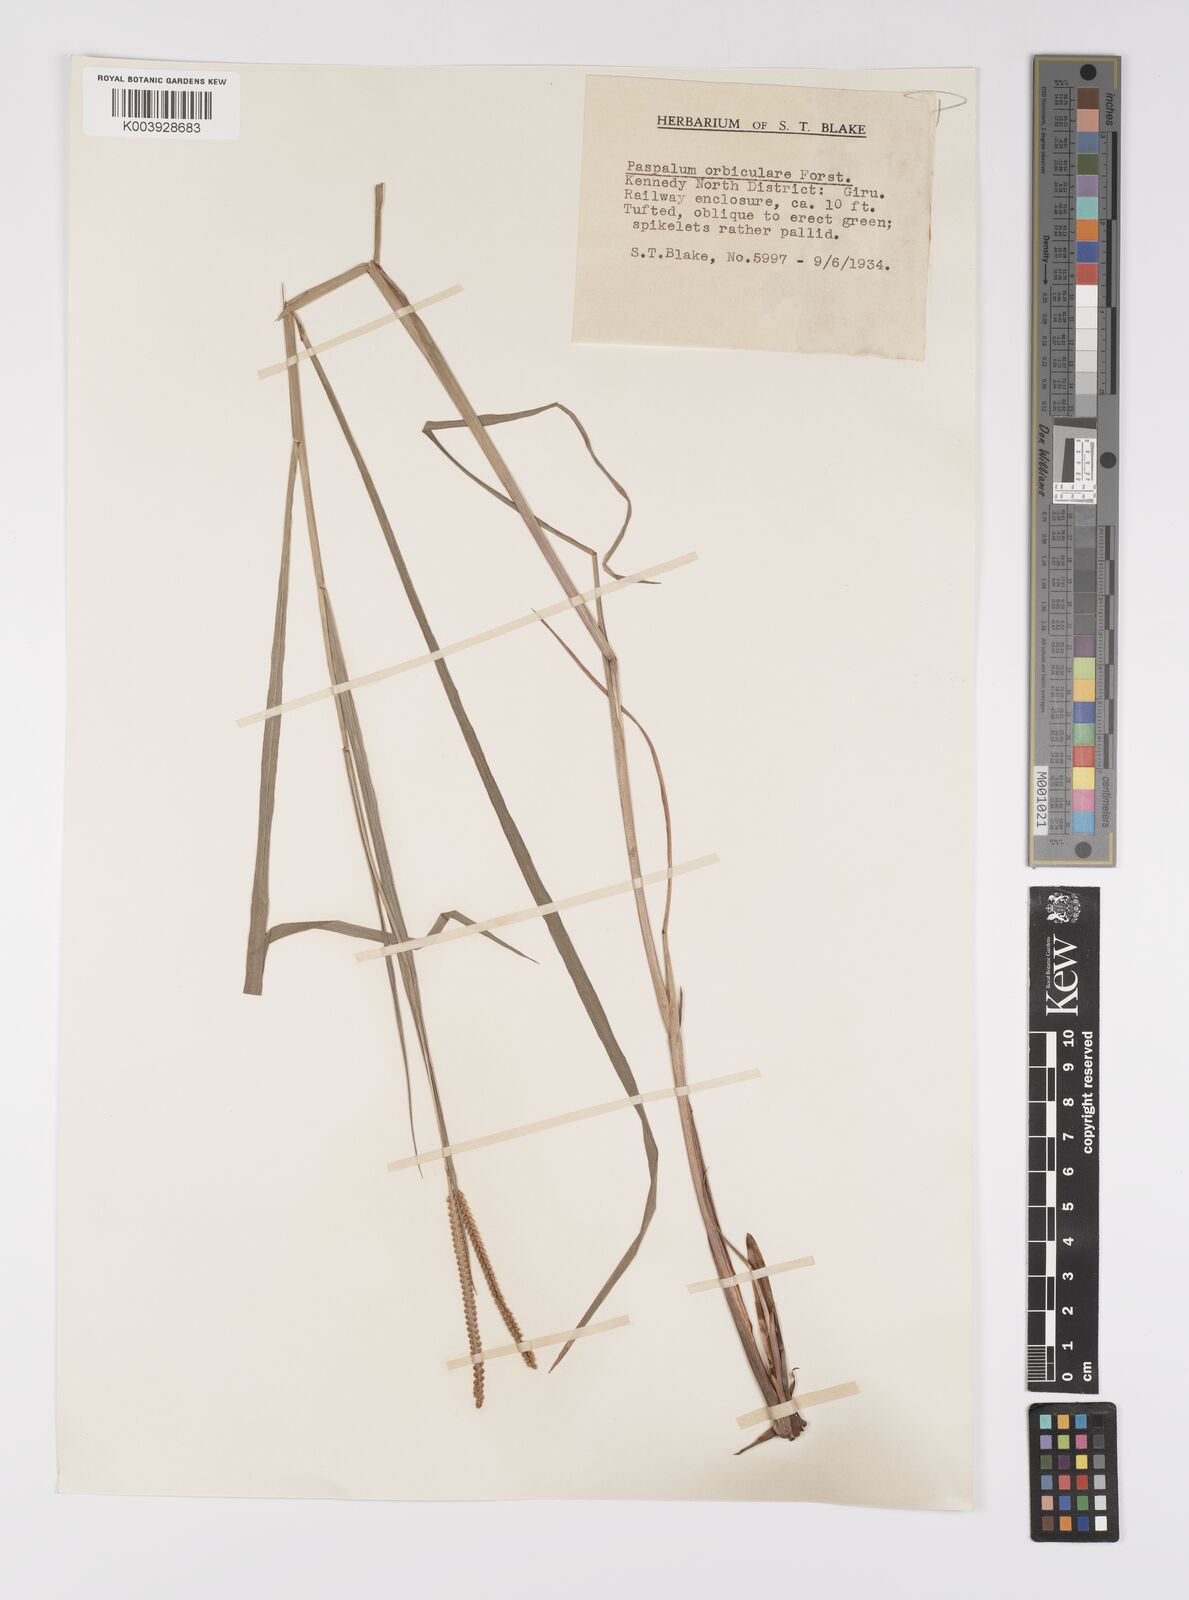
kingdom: Plantae
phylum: Tracheophyta
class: Liliopsida
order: Poales
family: Poaceae
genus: Paspalum
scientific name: Paspalum scrobiculatum
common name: Kodo millet
